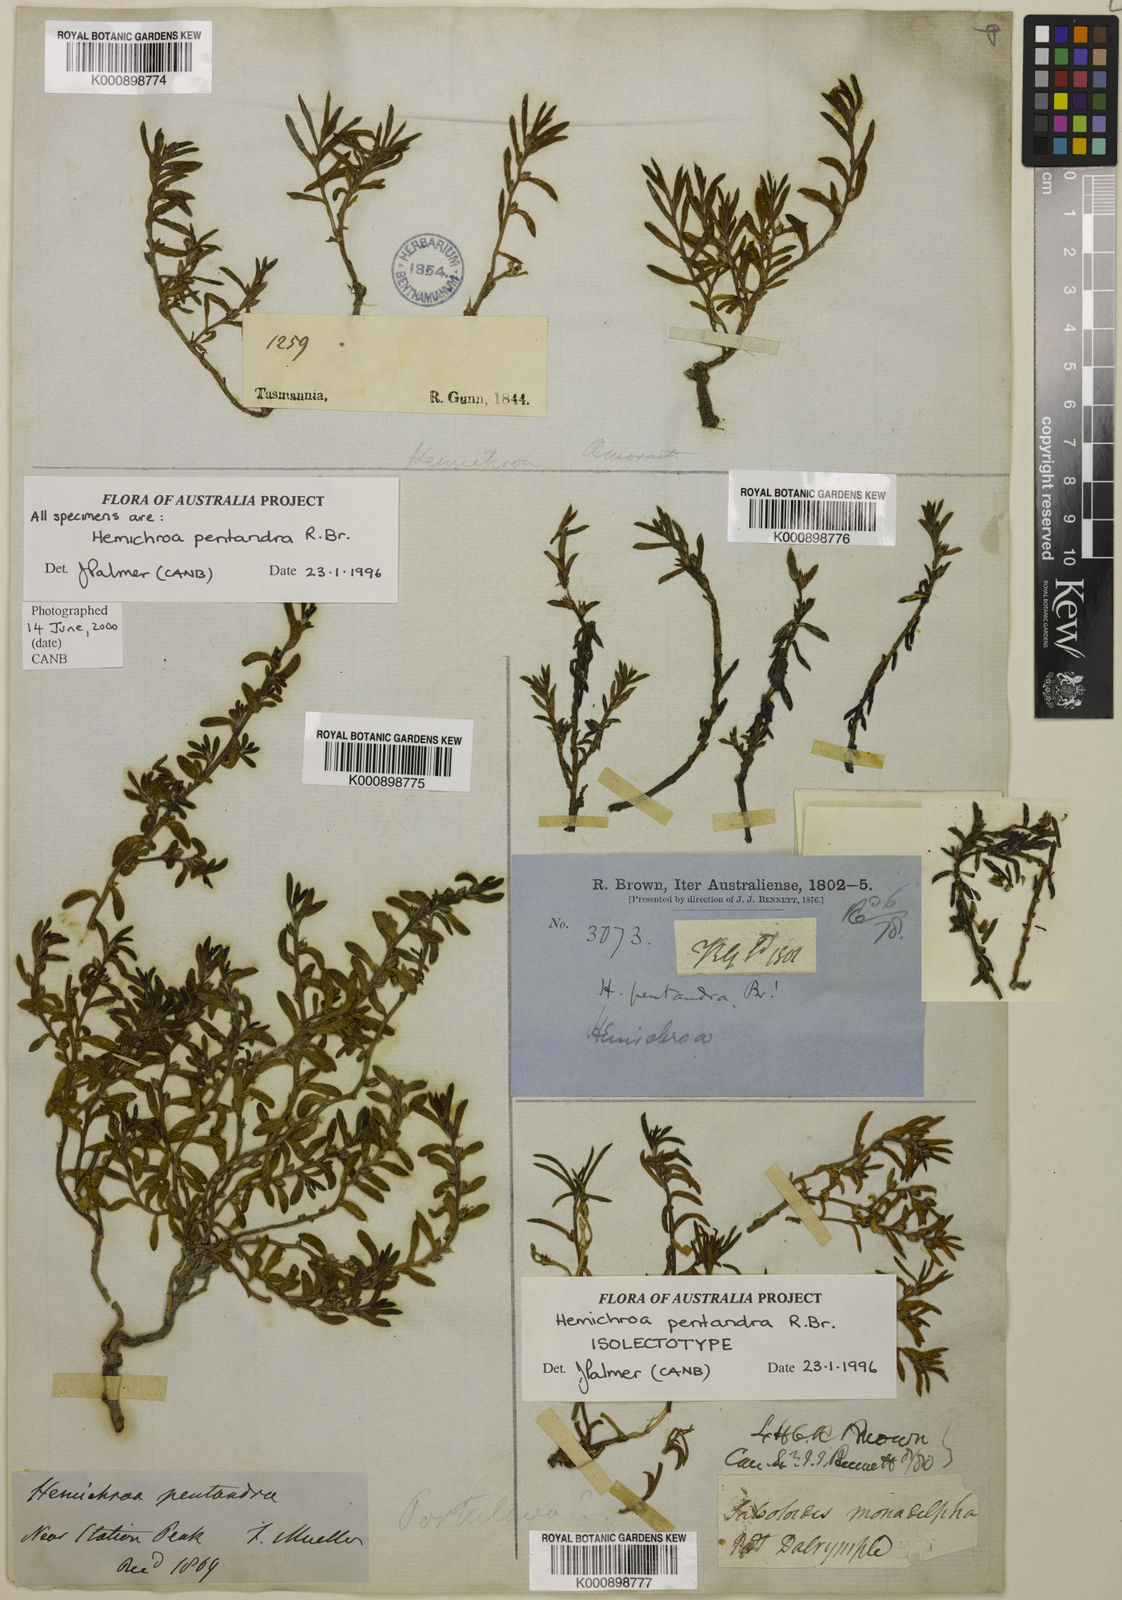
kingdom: Plantae
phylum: Tracheophyta
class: Magnoliopsida
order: Caryophyllales
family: Amaranthaceae
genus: Hemichroa
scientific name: Hemichroa pentandra
